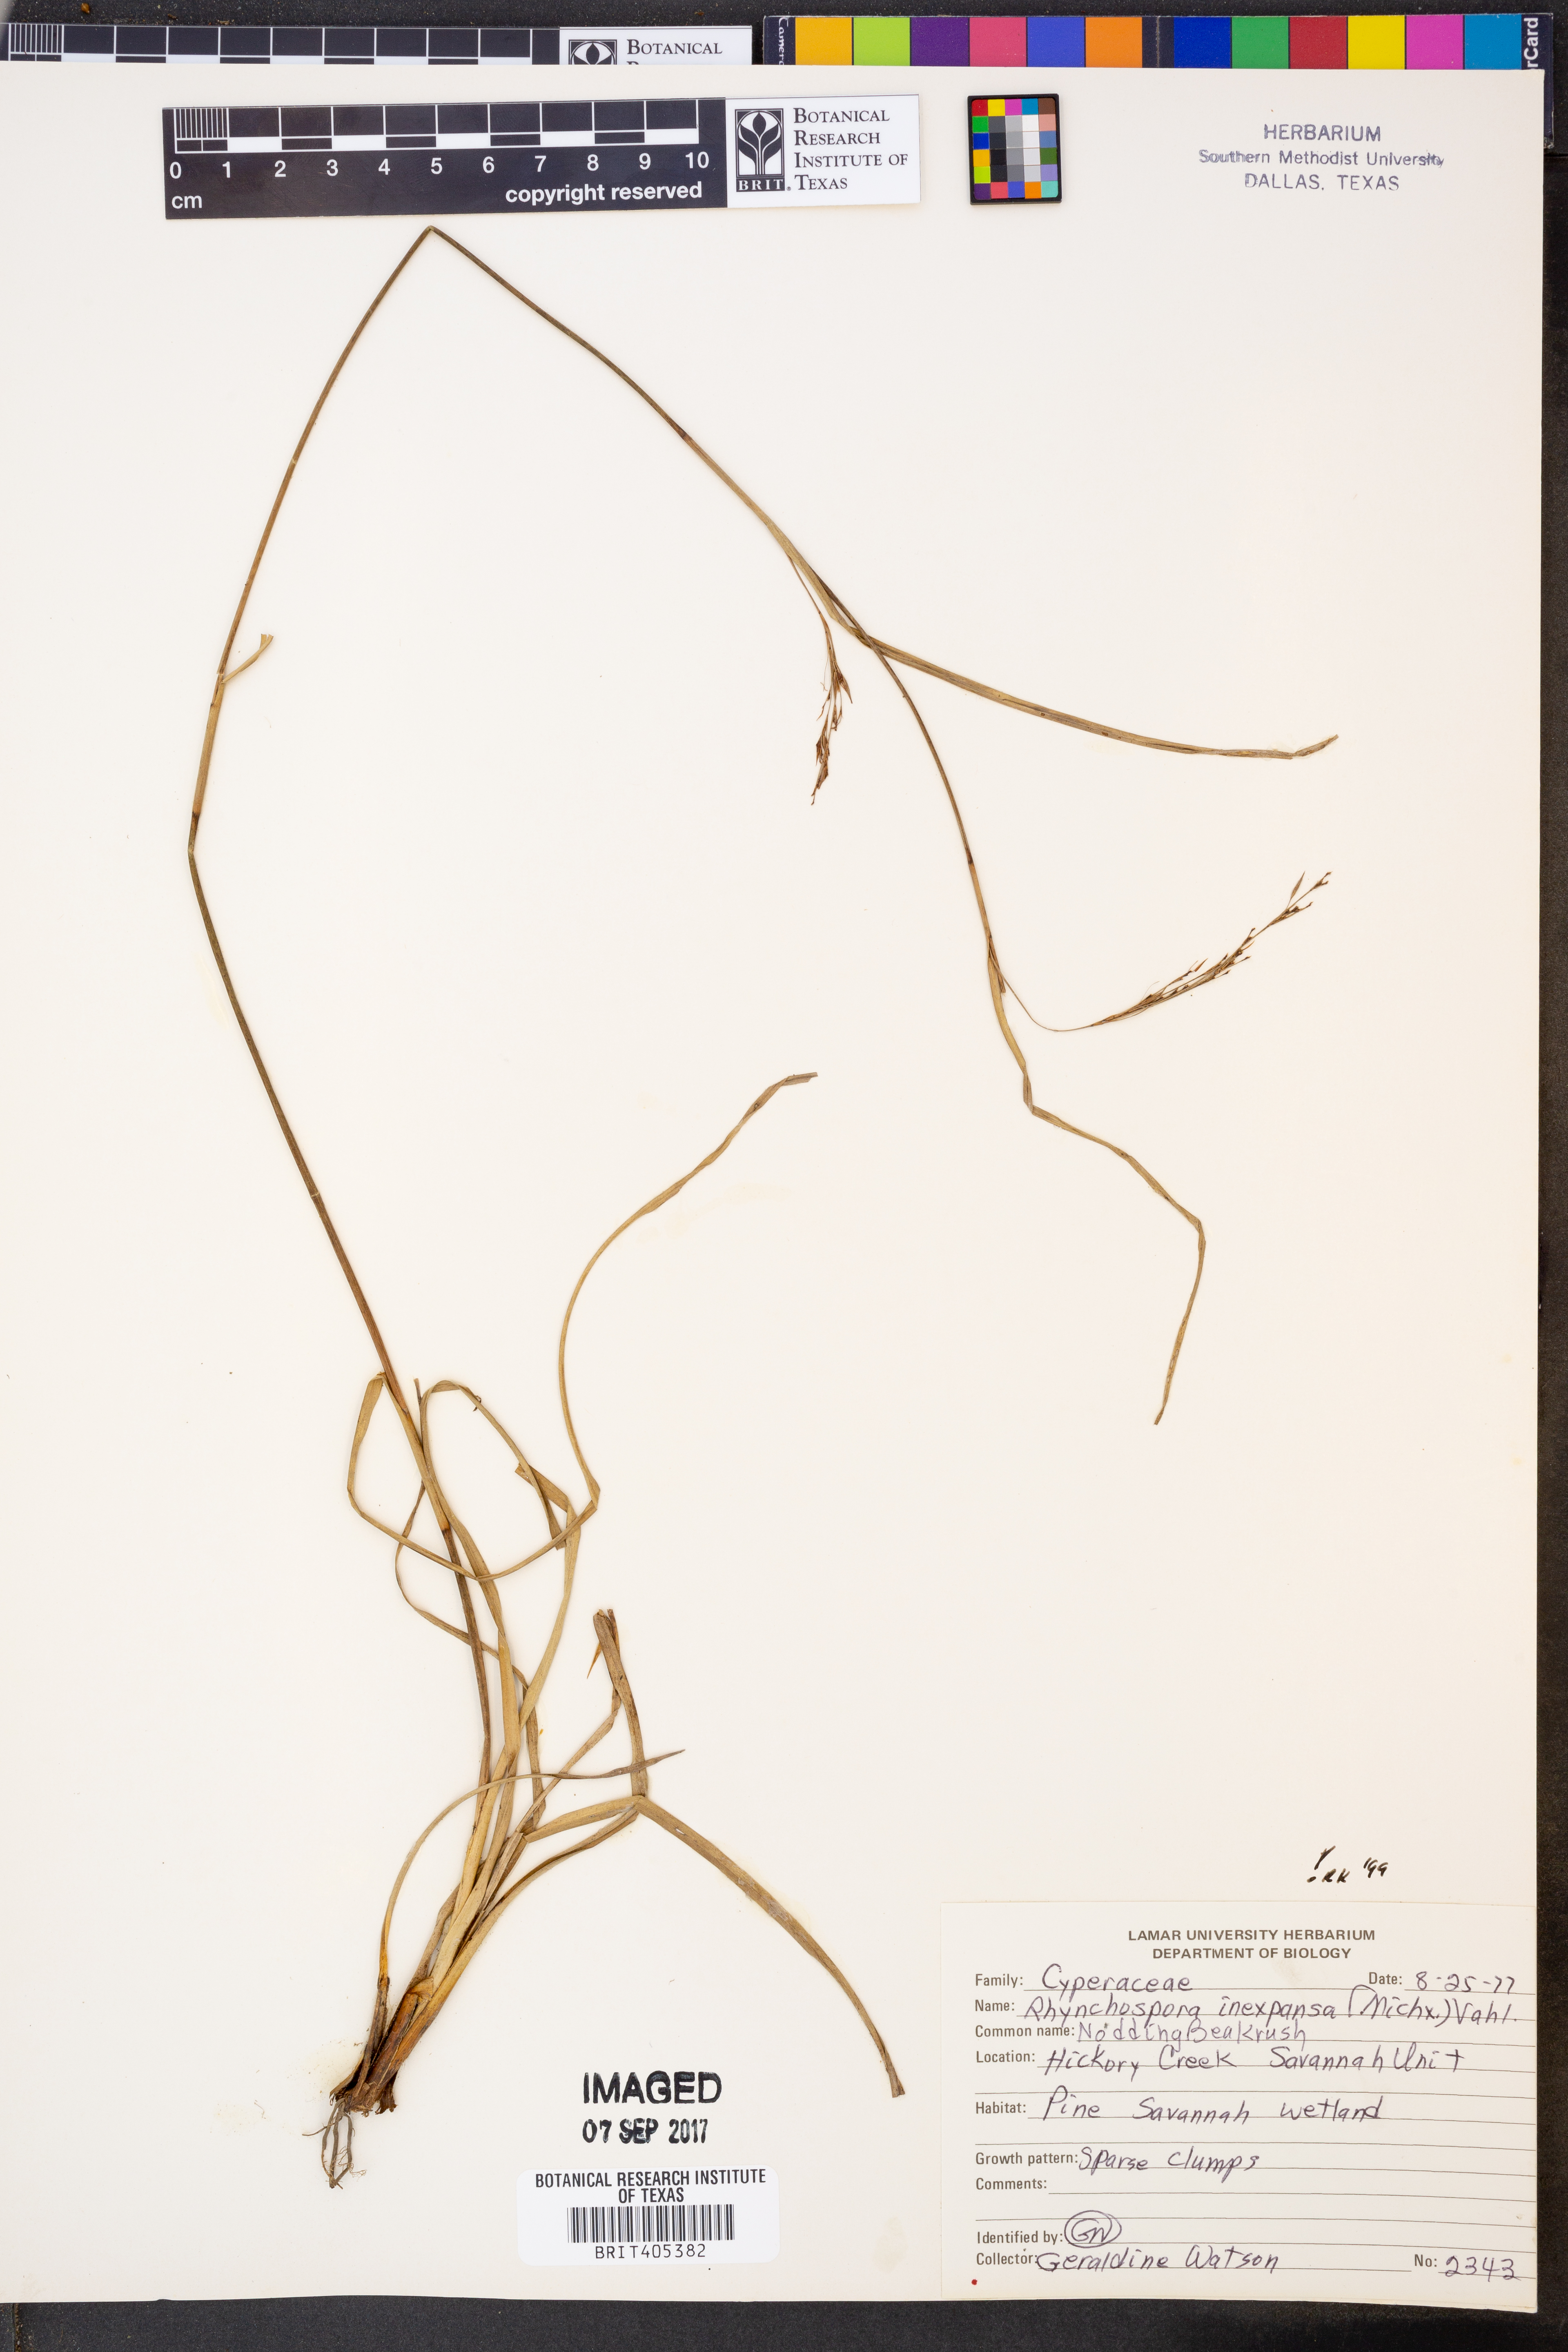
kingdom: Plantae
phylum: Tracheophyta
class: Liliopsida
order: Poales
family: Cyperaceae
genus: Rhynchospora
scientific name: Rhynchospora inexpansa
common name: Nodding beaksedge
